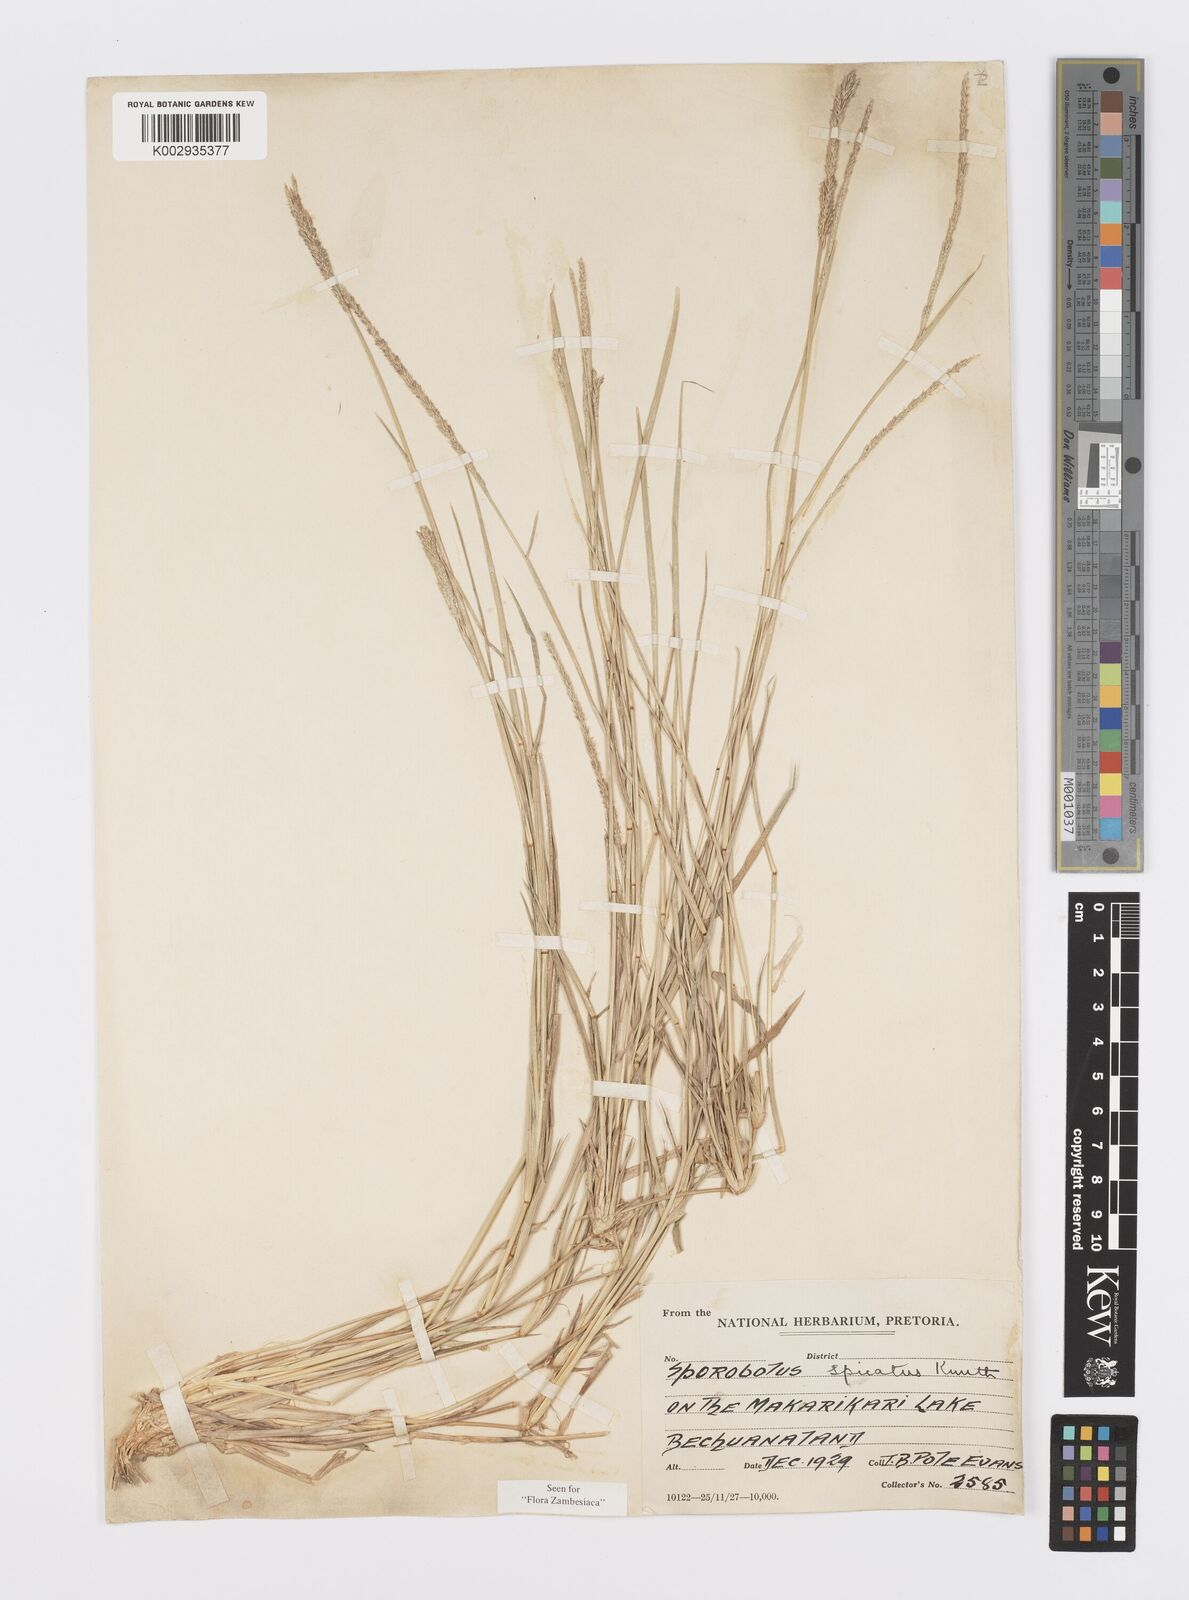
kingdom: Plantae
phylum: Tracheophyta
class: Liliopsida
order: Poales
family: Poaceae
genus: Sporobolus
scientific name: Sporobolus spicatus
